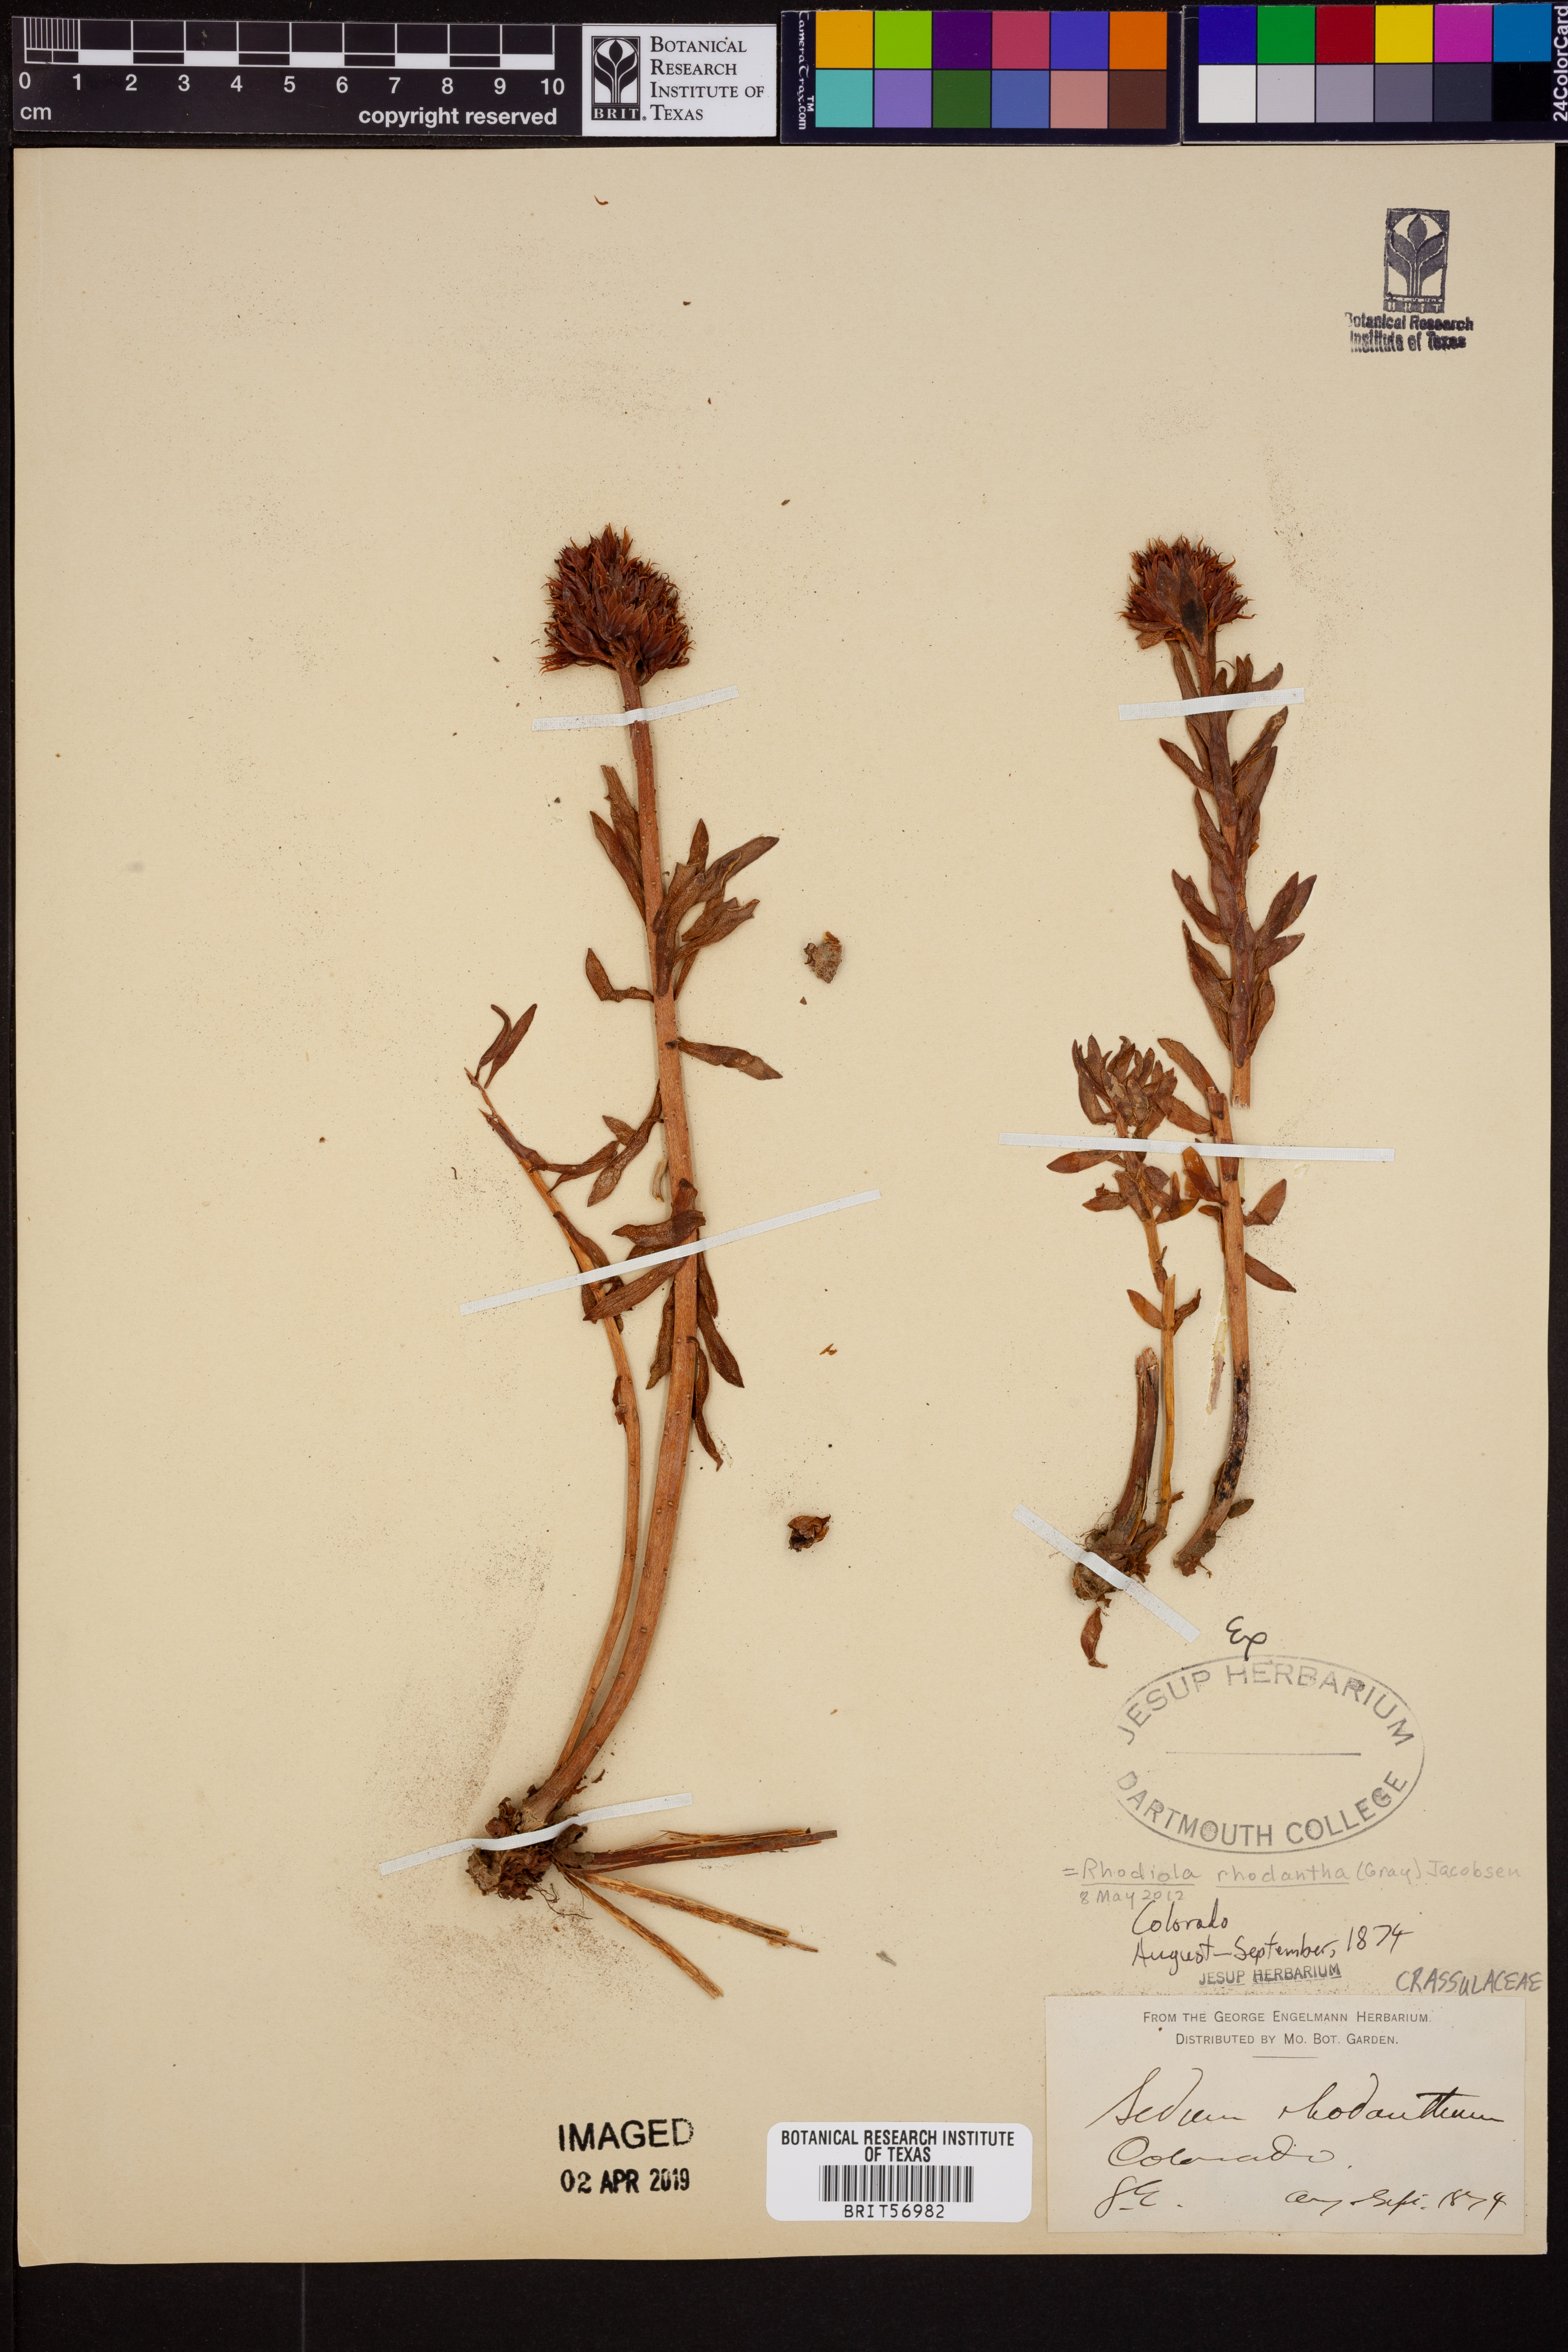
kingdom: Plantae
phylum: Tracheophyta
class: Magnoliopsida
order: Saxifragales
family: Crassulaceae
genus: Rhodiola
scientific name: Rhodiola rhodantha
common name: Red orpine
